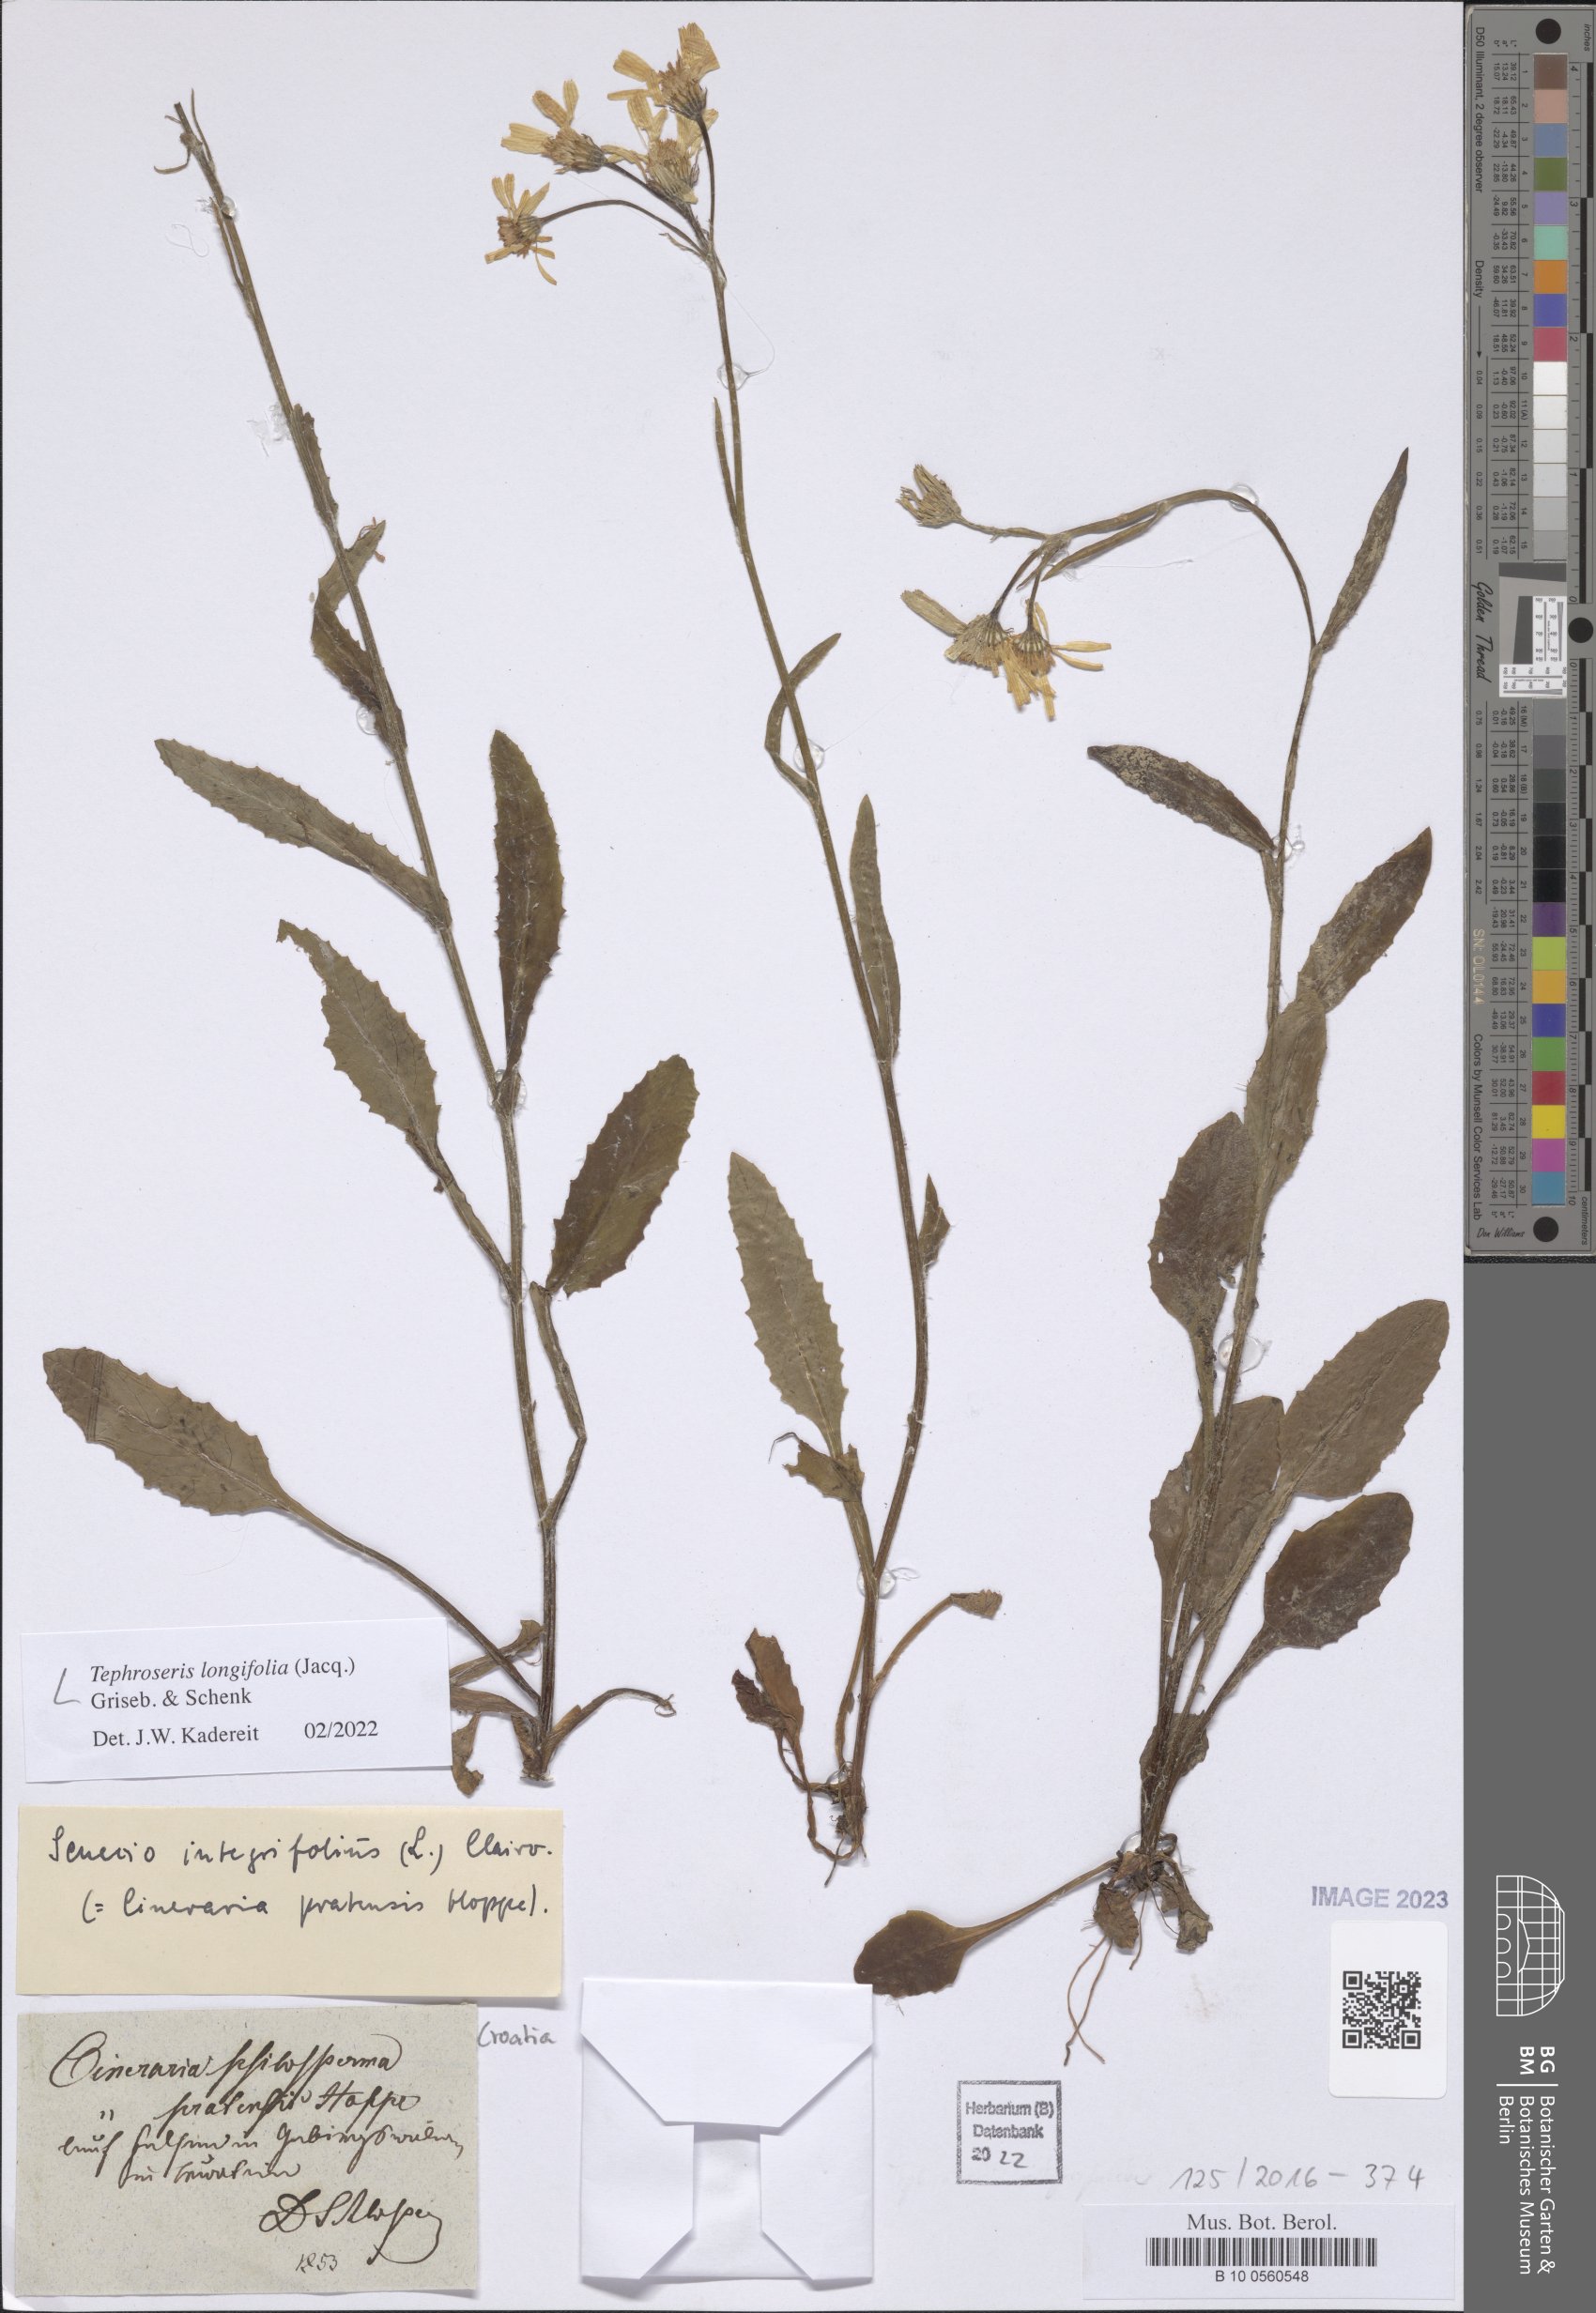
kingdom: Plantae
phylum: Tracheophyta
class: Magnoliopsida
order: Asterales
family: Asteraceae
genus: Tephroseris
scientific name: Tephroseris integrifolia
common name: Field fleawort
